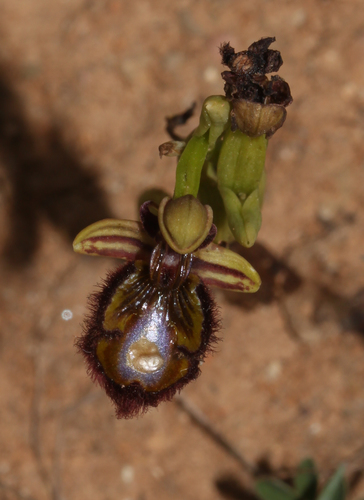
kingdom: Plantae
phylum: Tracheophyta
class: Liliopsida
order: Asparagales
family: Orchidaceae
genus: Ophrys
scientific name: Ophrys speculum
